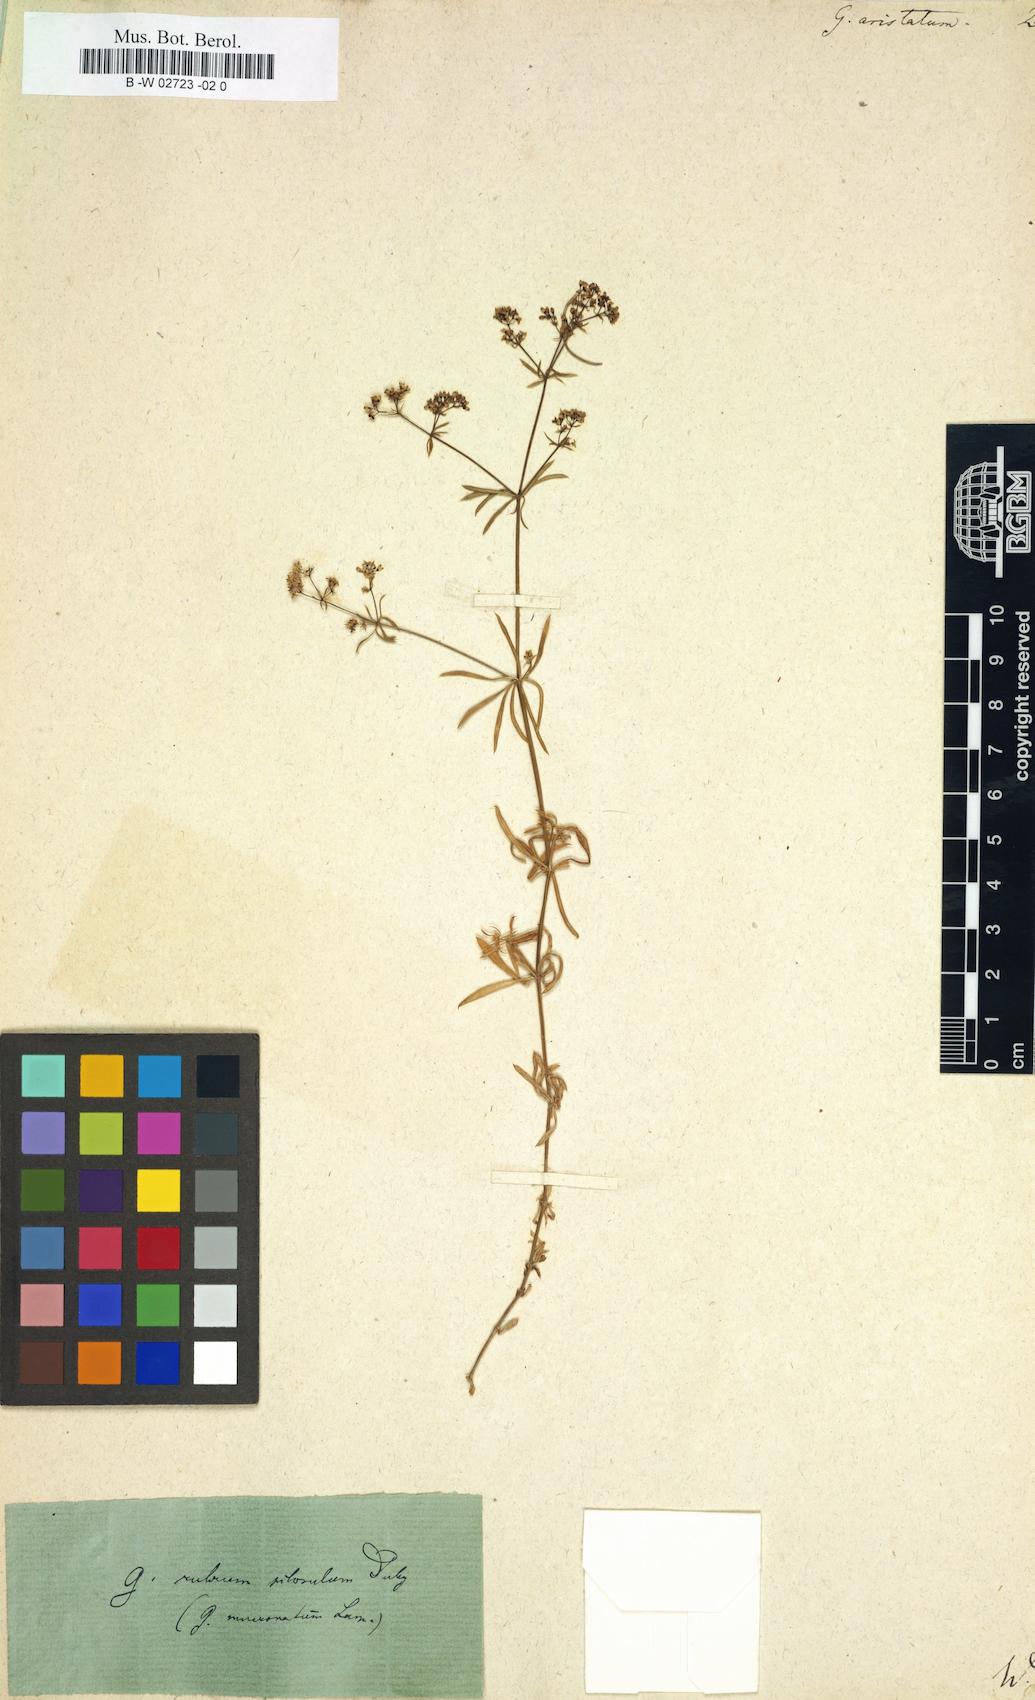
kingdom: Plantae
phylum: Tracheophyta
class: Magnoliopsida
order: Gentianales
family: Rubiaceae
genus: Galium
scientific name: Galium aristatum
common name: Awned bedstraw
